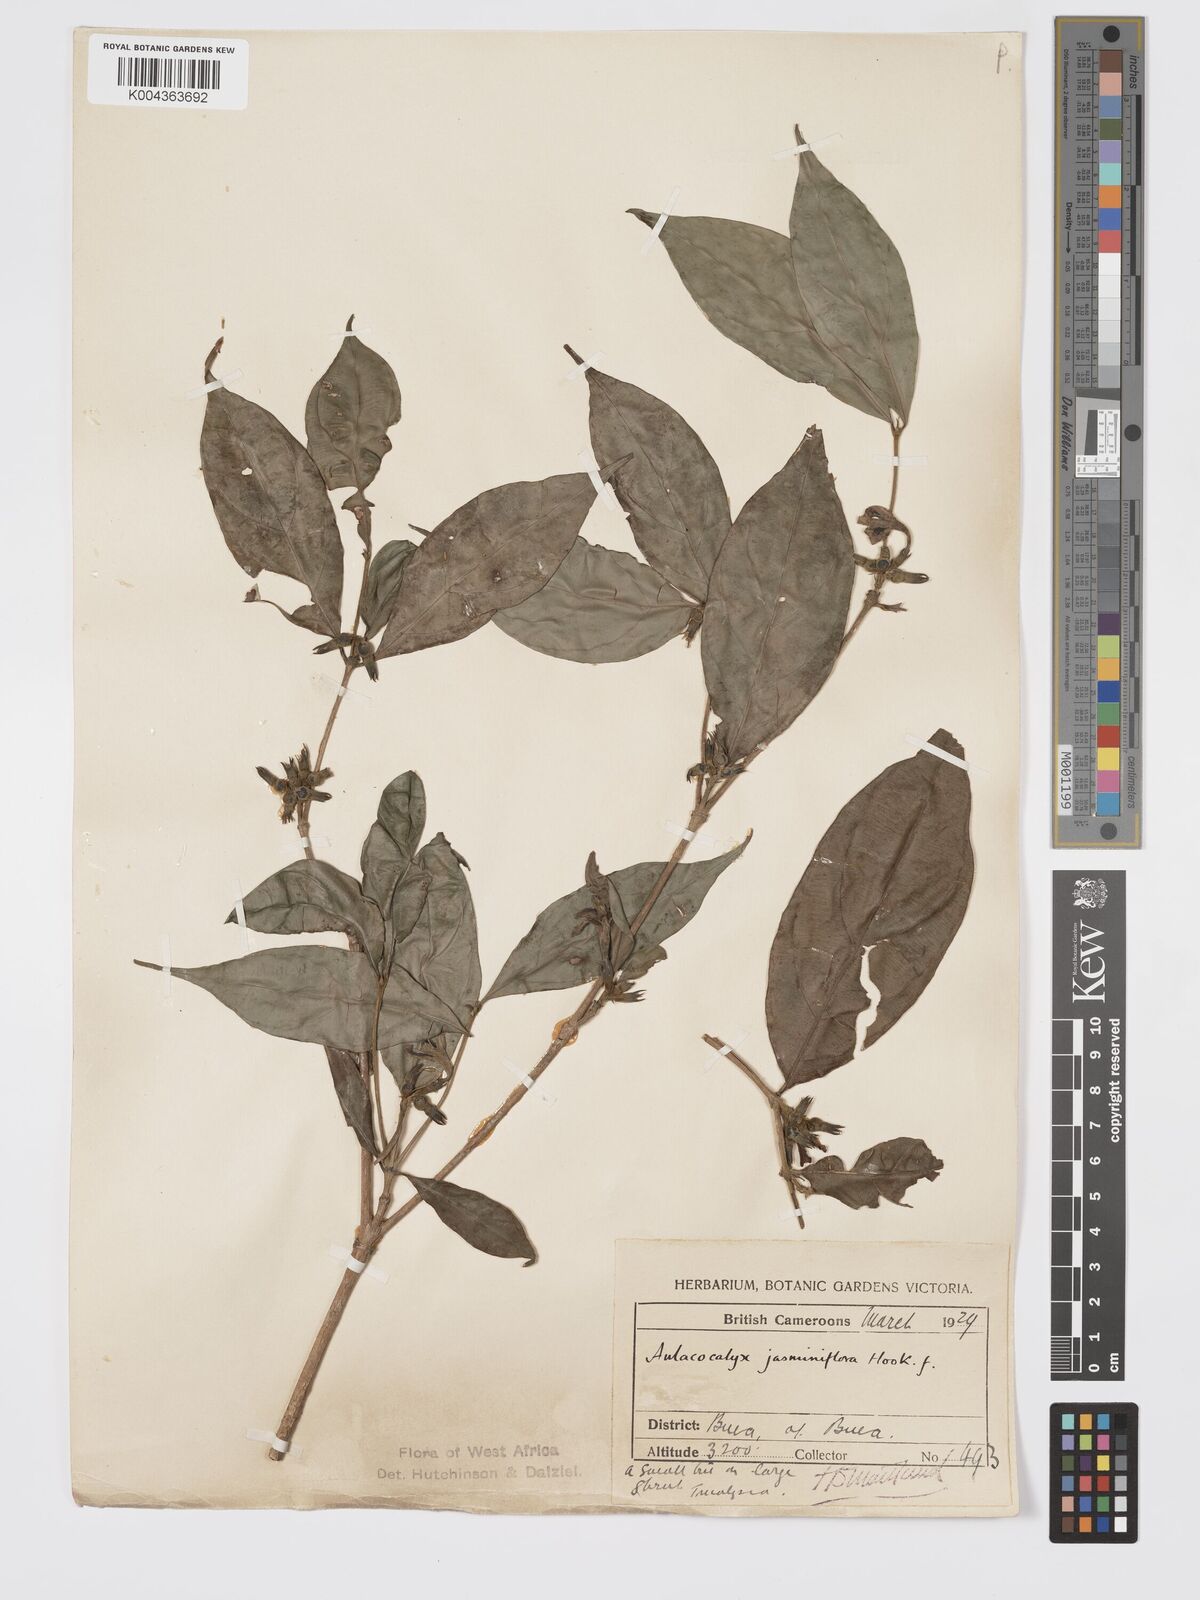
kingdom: Plantae
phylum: Tracheophyta
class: Magnoliopsida
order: Gentianales
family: Rubiaceae
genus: Aulacocalyx
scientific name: Aulacocalyx jasminiflora
